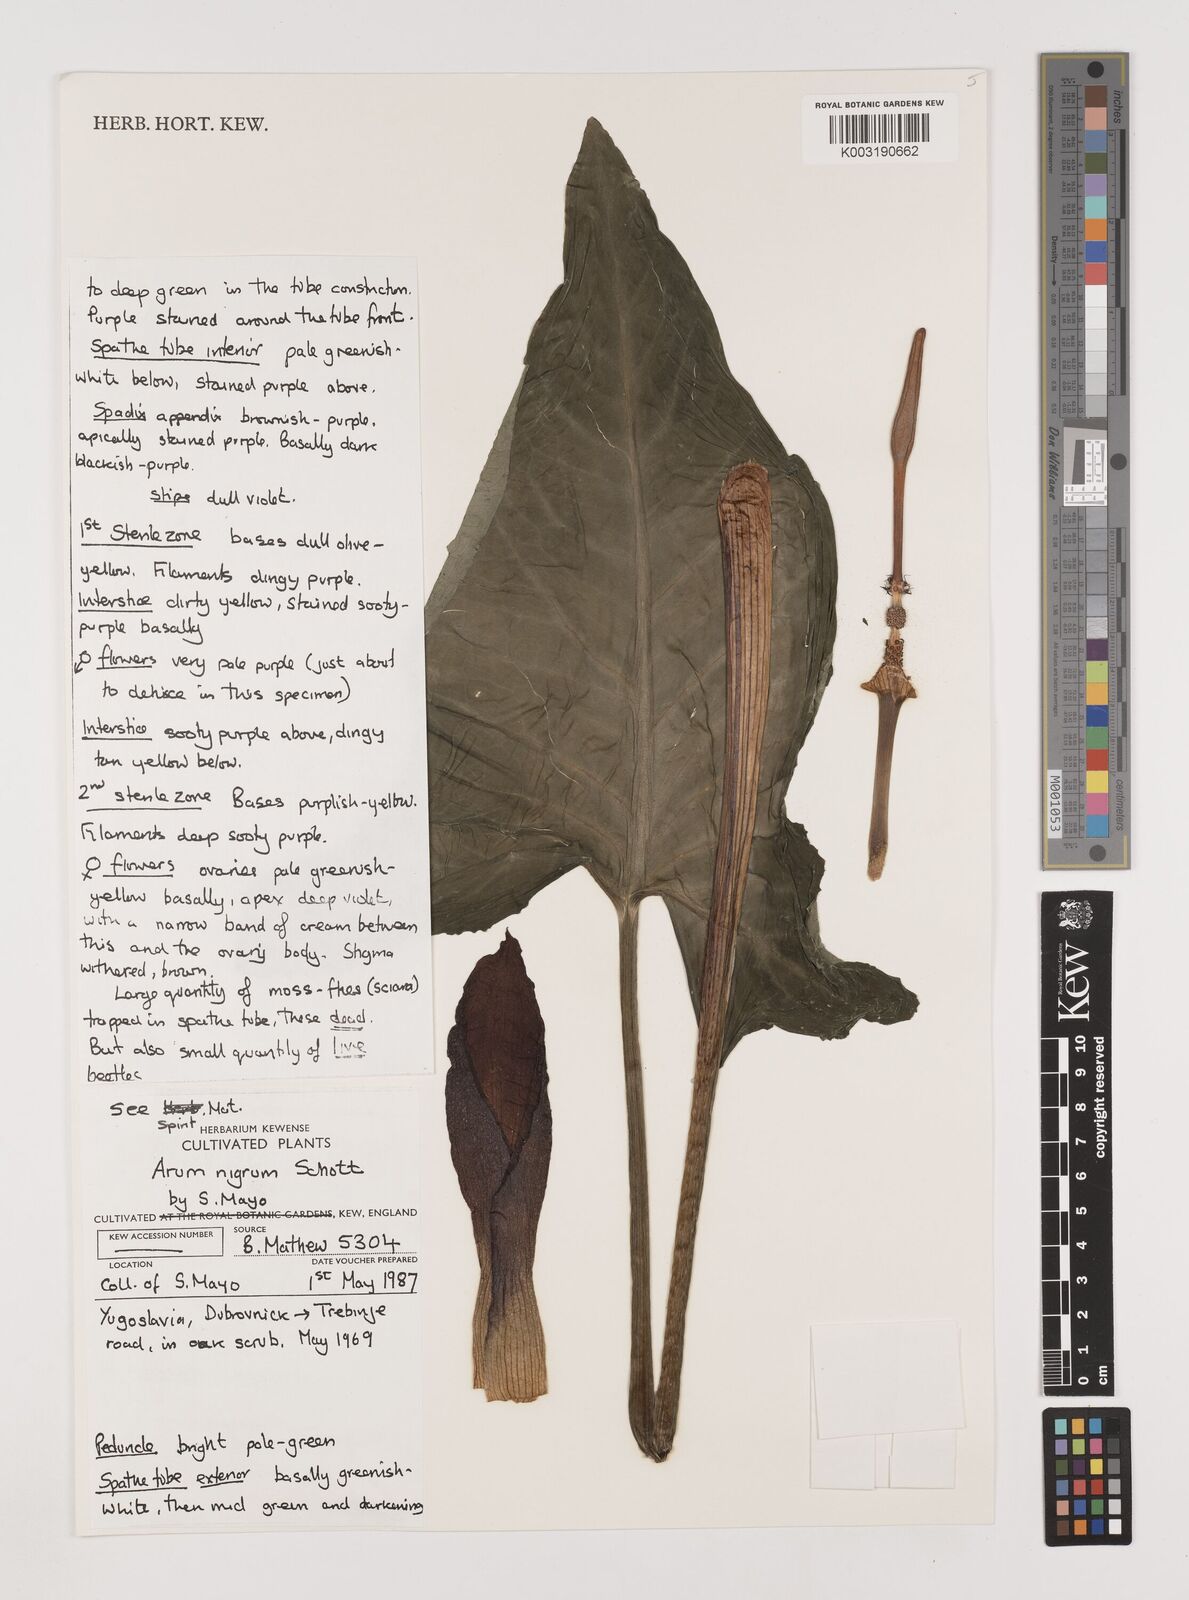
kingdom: Plantae
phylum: Tracheophyta
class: Liliopsida
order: Alismatales
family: Araceae
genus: Arum
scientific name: Arum nigrum
